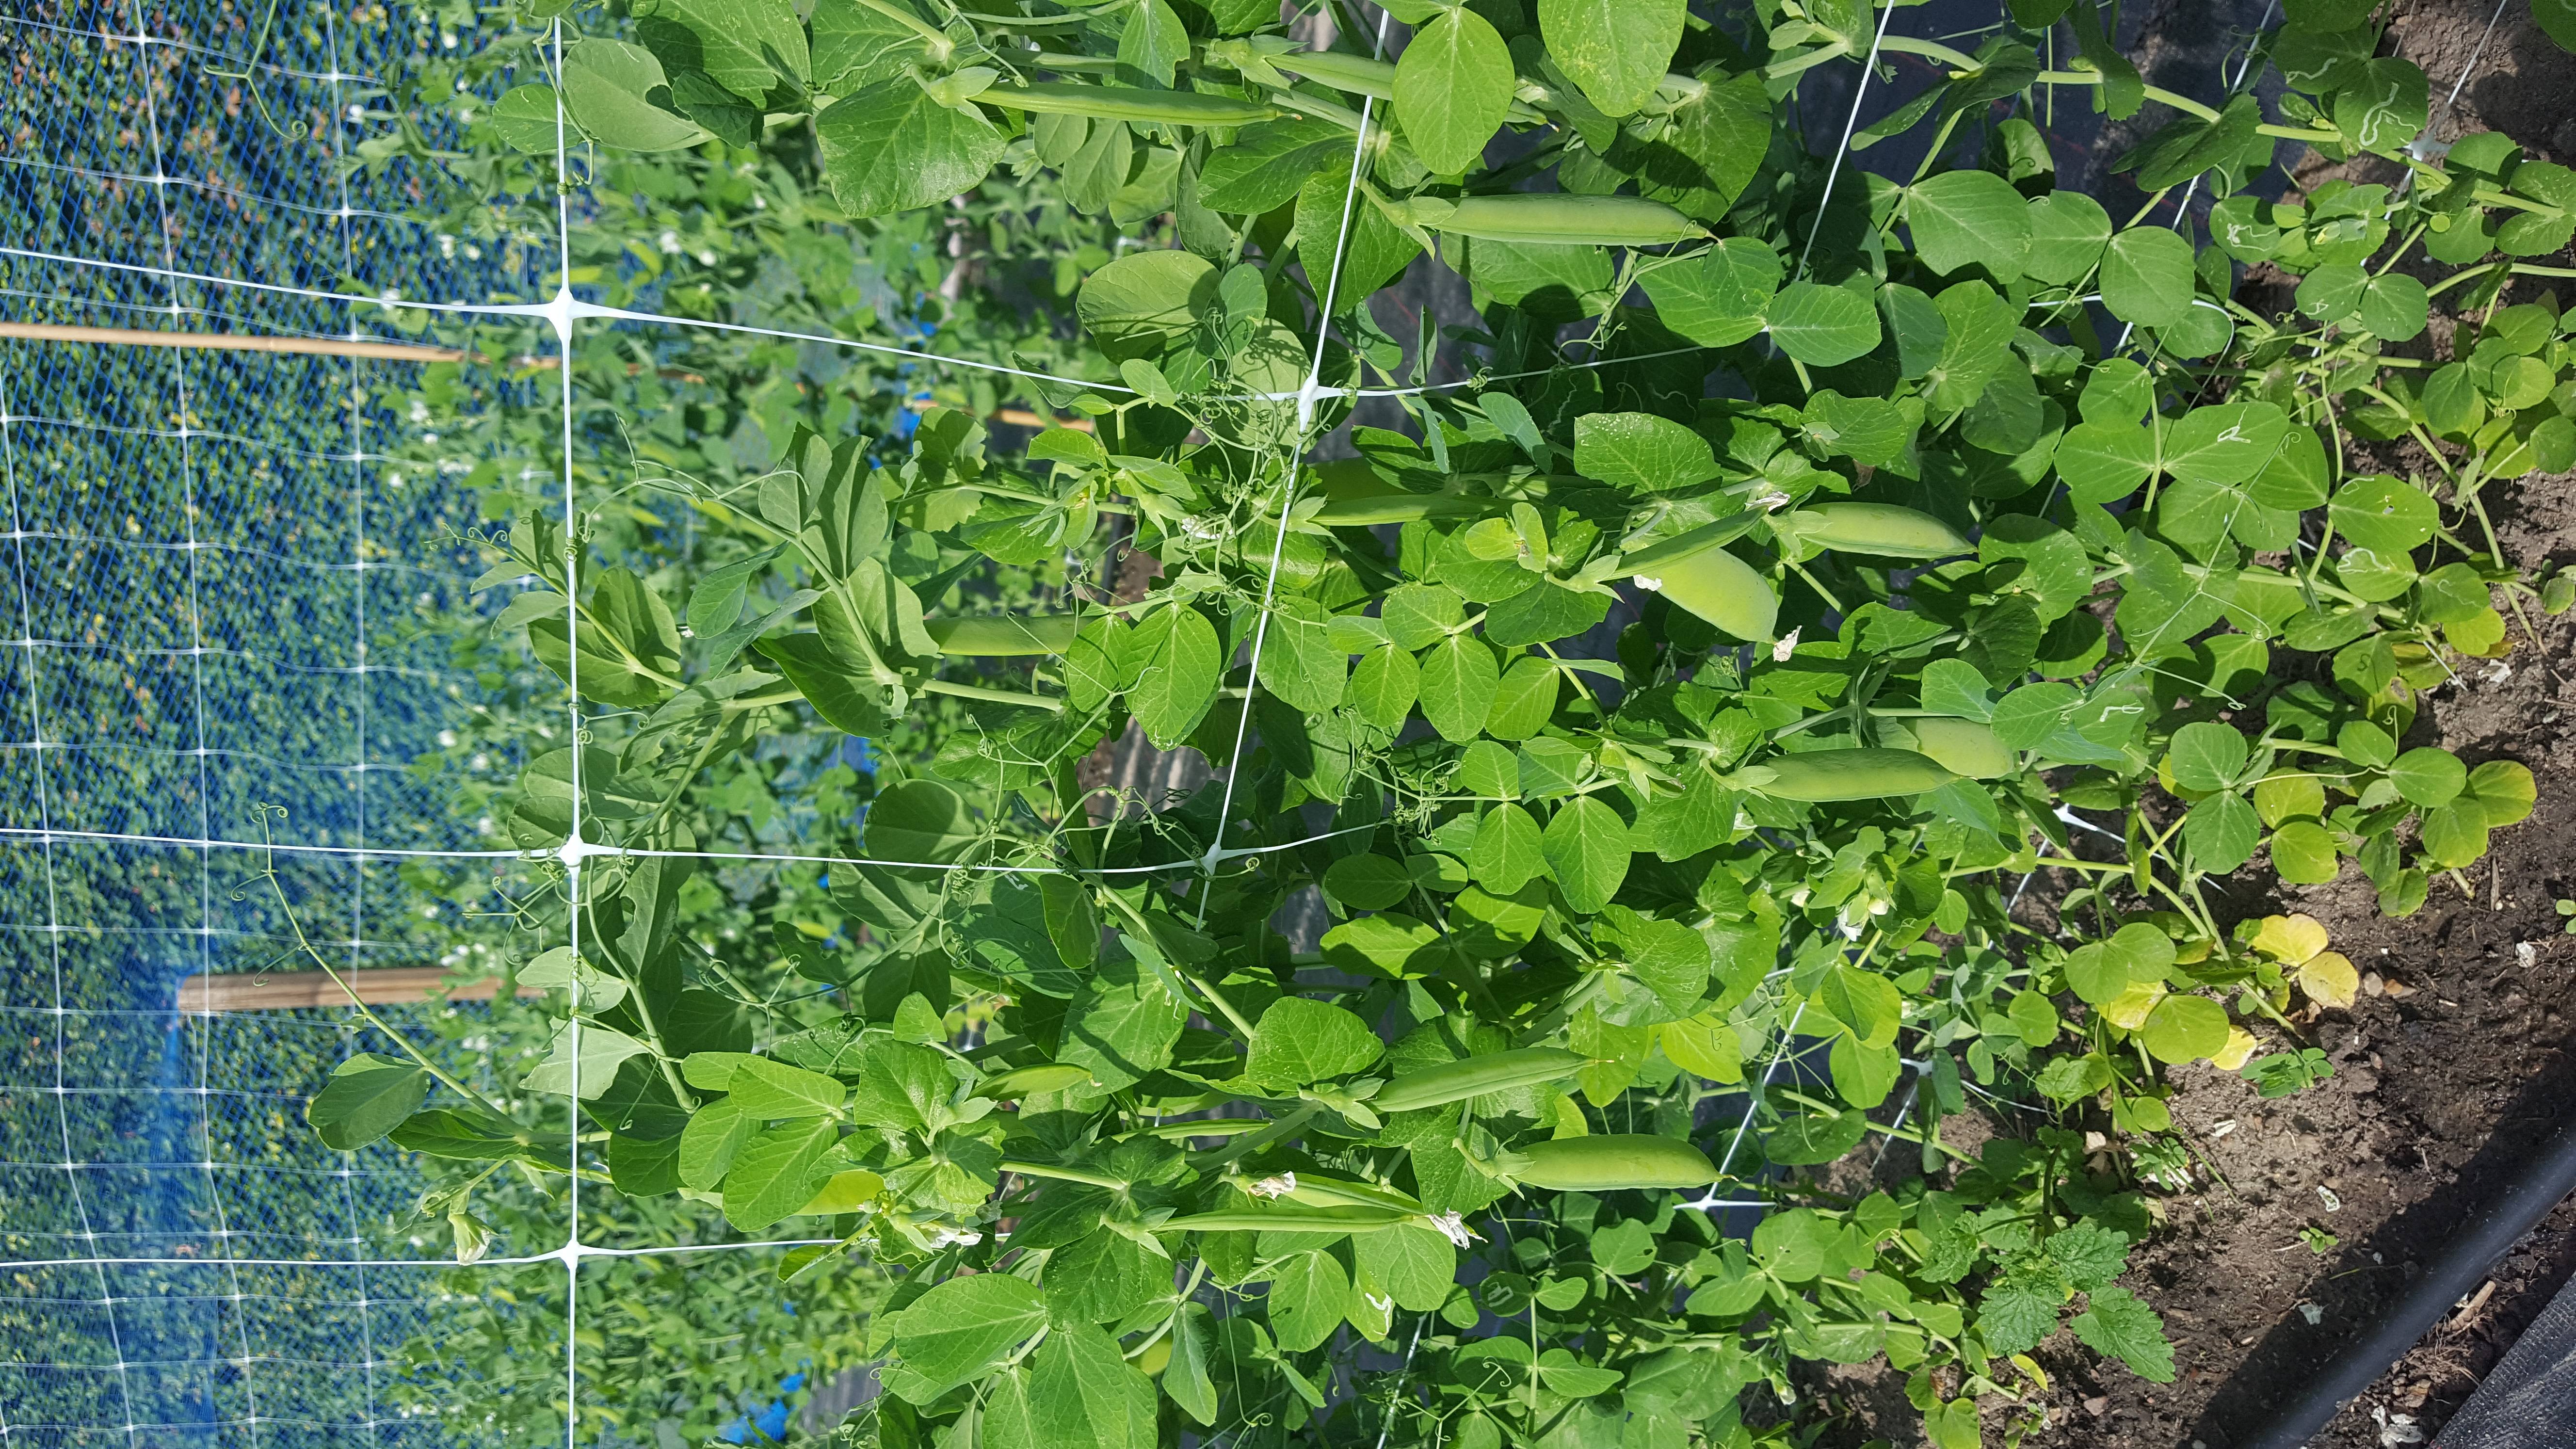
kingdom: Plantae
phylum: Tracheophyta
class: Magnoliopsida
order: Fabales
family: Fabaceae
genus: Lathyrus
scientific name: Lathyrus oleraceus
